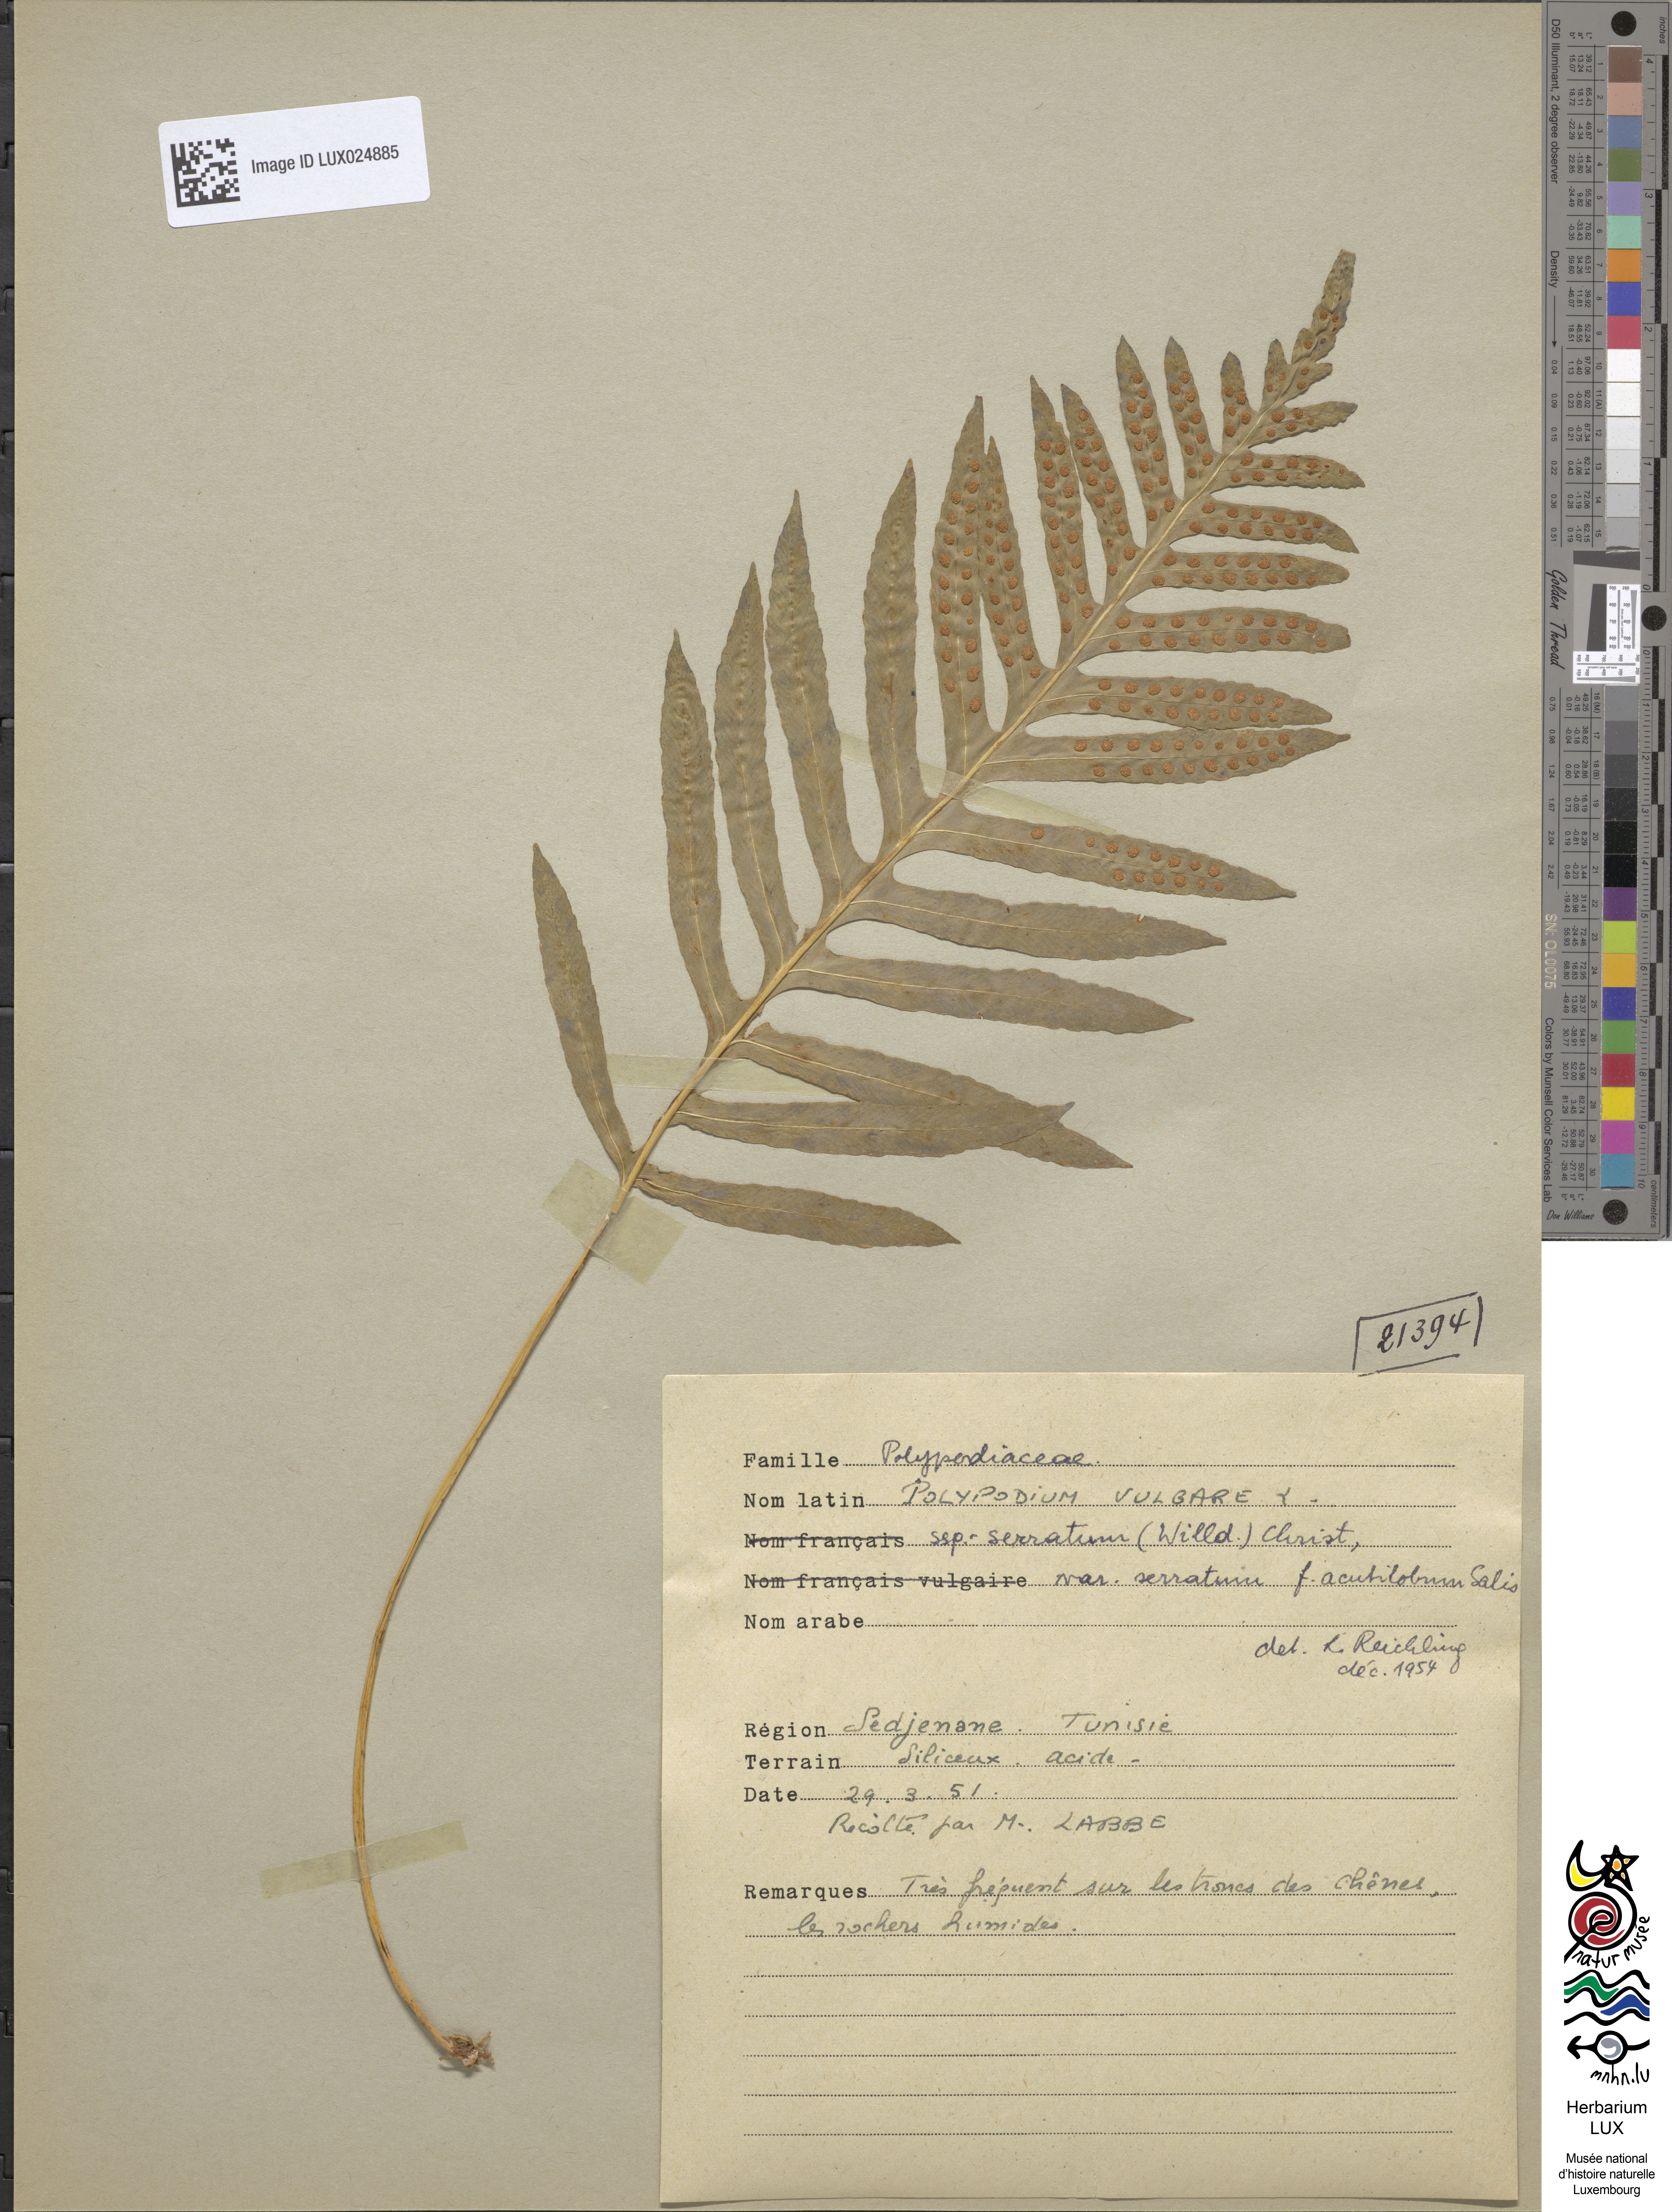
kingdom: Plantae
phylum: Tracheophyta
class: Polypodiopsida
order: Polypodiales
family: Polypodiaceae
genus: Polypodium
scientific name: Polypodium
